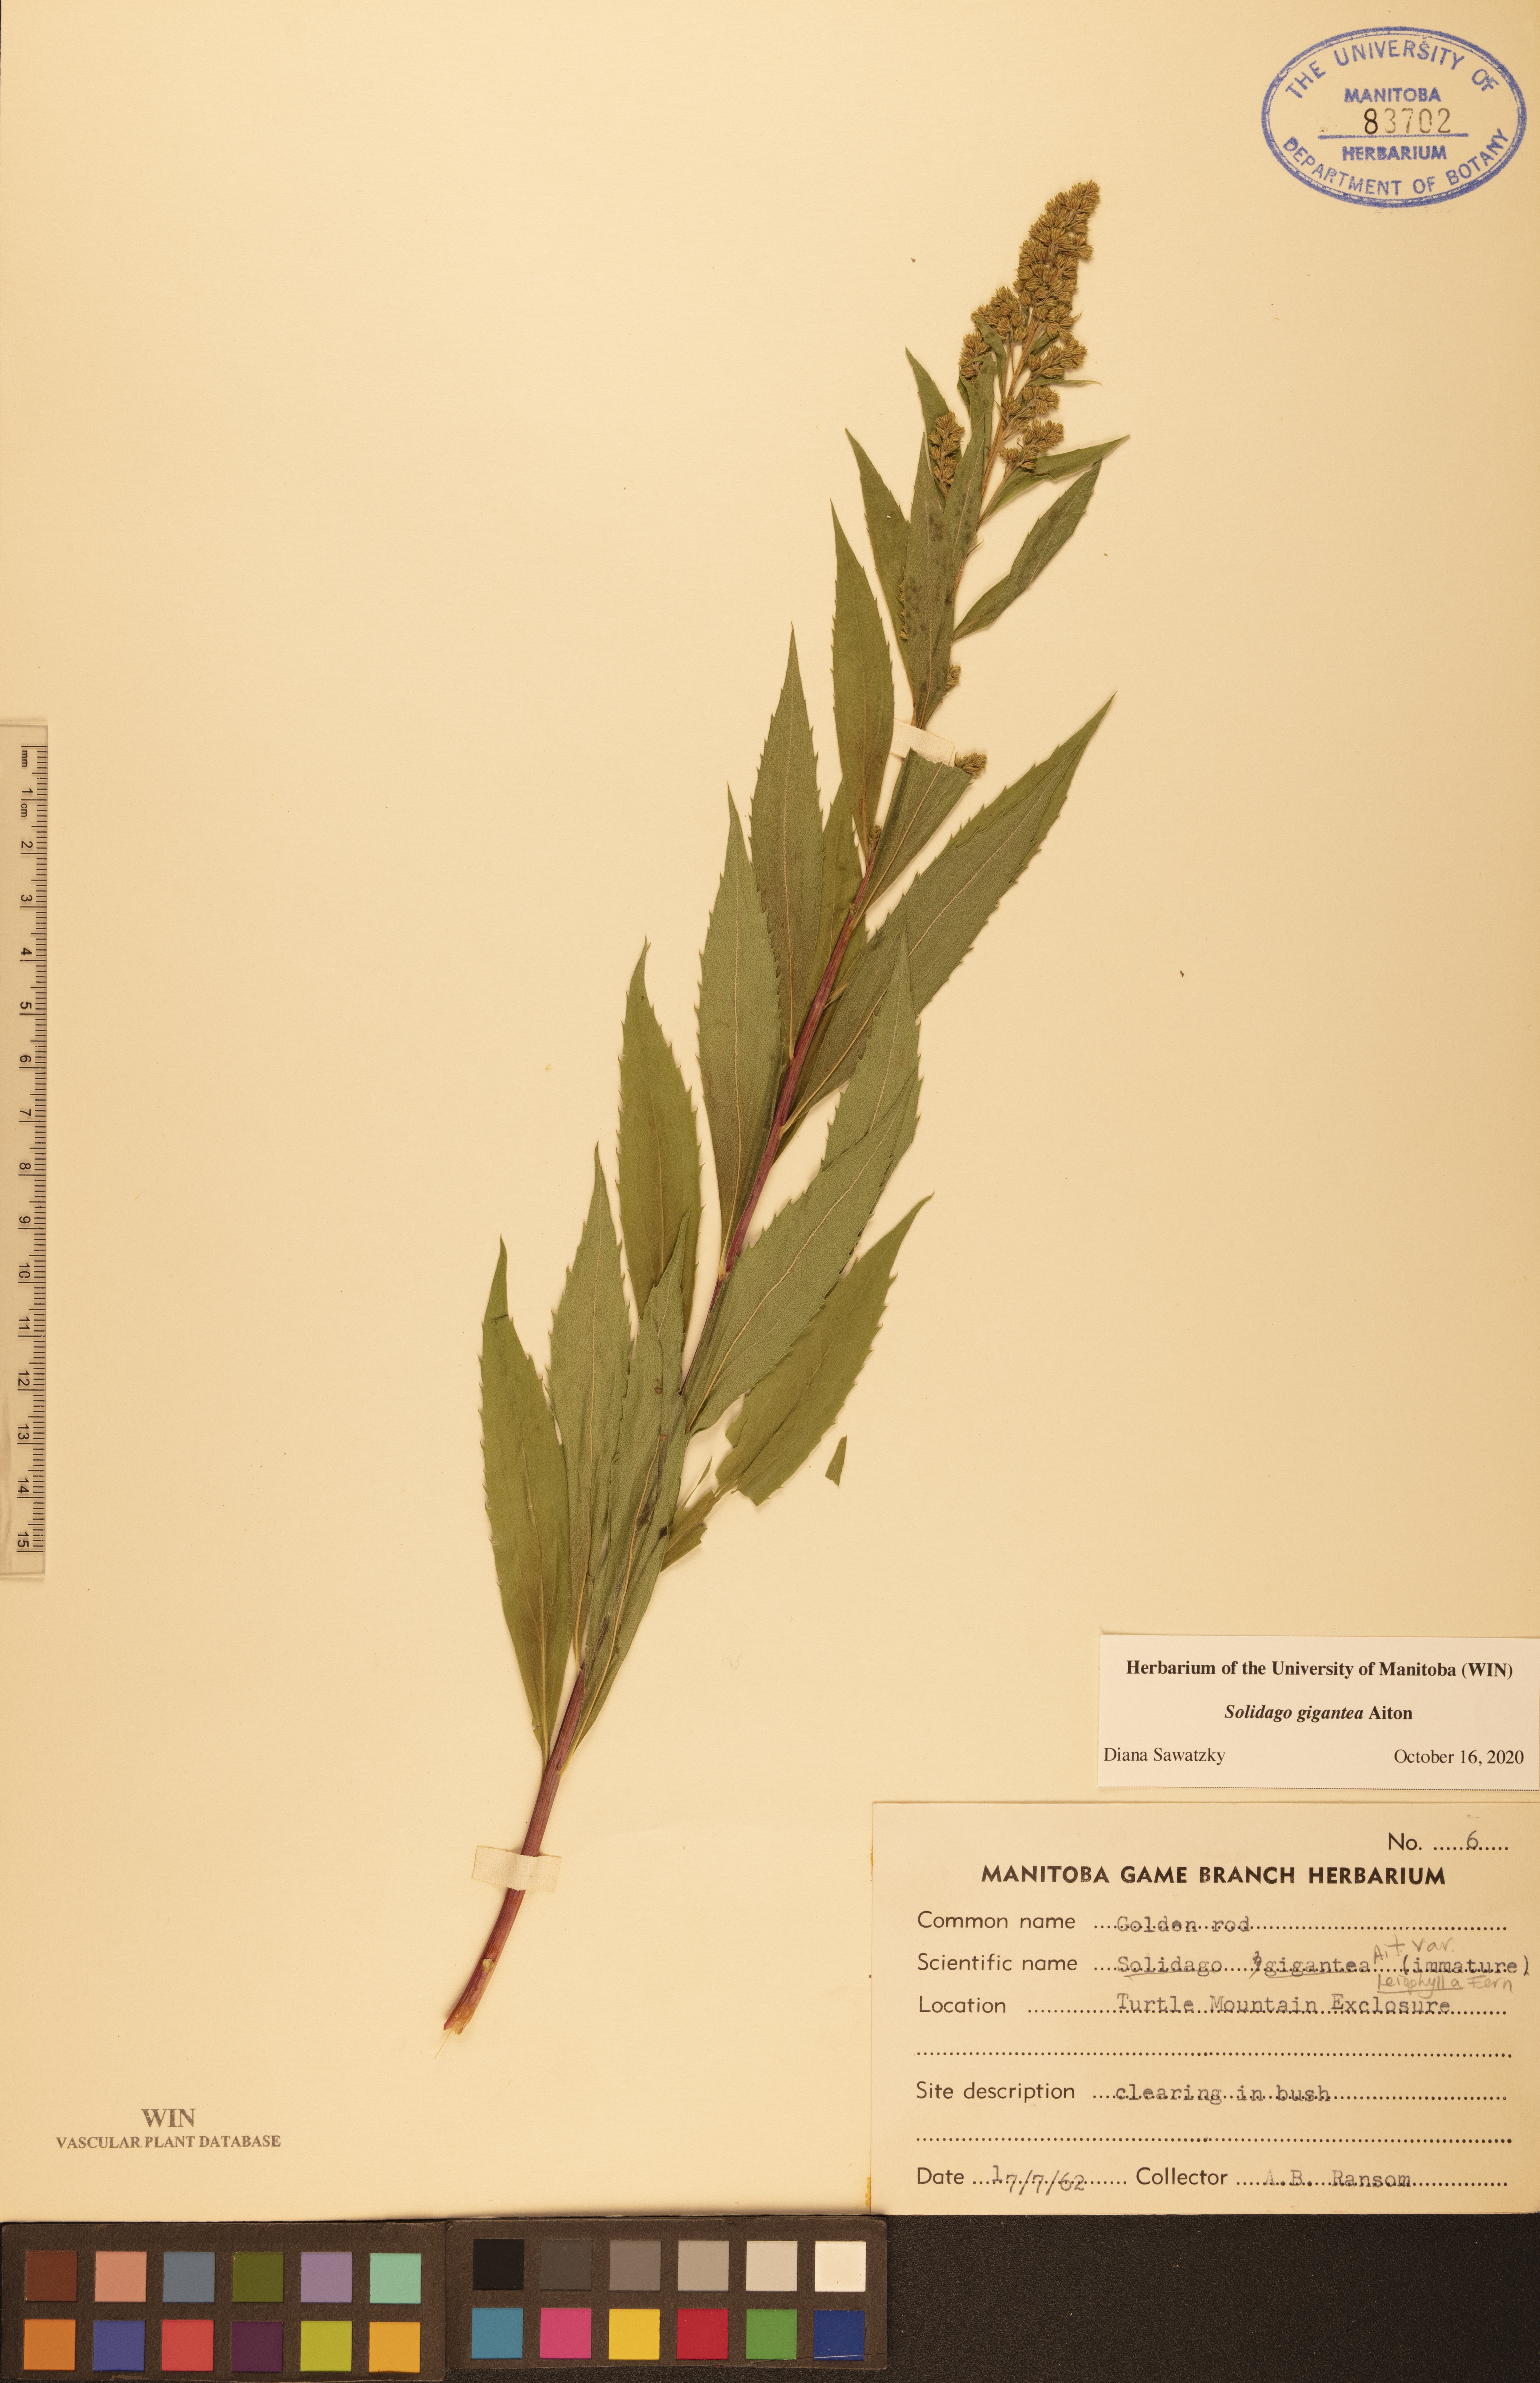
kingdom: Plantae
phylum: Tracheophyta
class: Magnoliopsida
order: Asterales
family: Asteraceae
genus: Solidago
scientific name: Solidago gigantea
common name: Giant goldenrod
